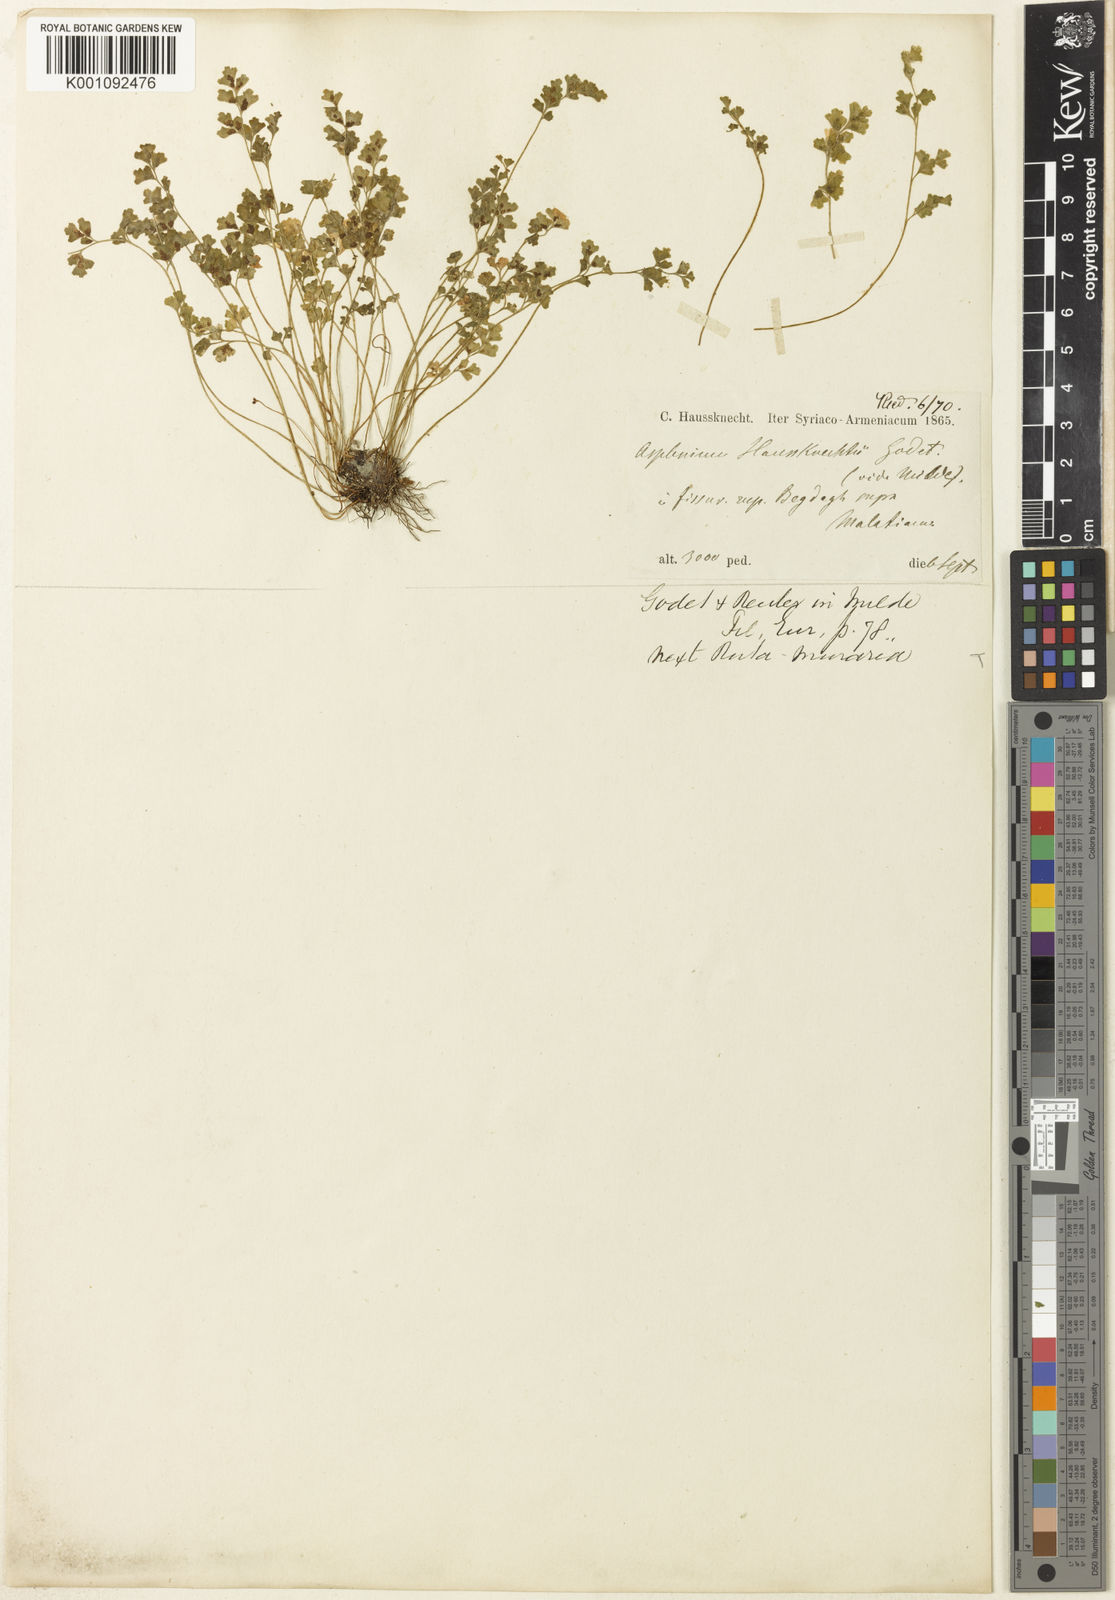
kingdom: Plantae
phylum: Tracheophyta
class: Polypodiopsida
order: Polypodiales
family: Aspleniaceae
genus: Asplenium
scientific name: Asplenium
